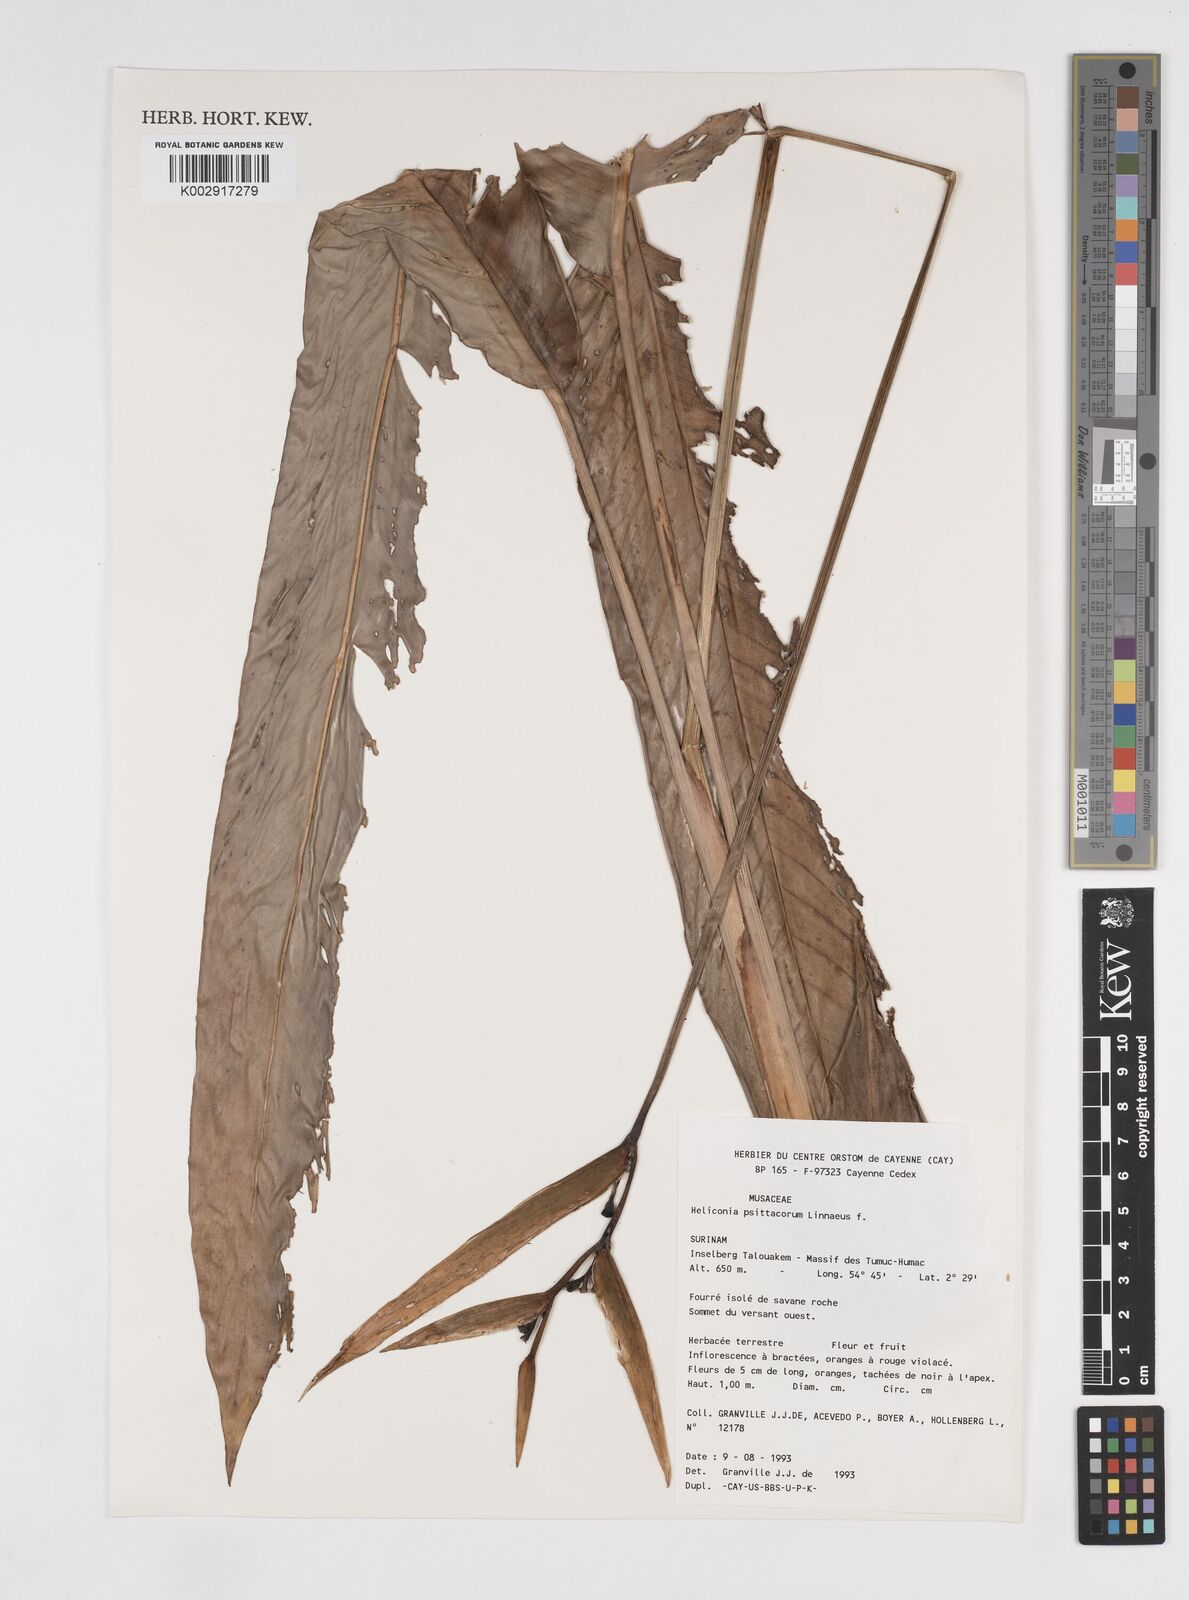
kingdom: Plantae
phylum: Tracheophyta
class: Liliopsida
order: Zingiberales
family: Heliconiaceae
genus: Heliconia
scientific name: Heliconia psittacorum
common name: Parrot's-flower
